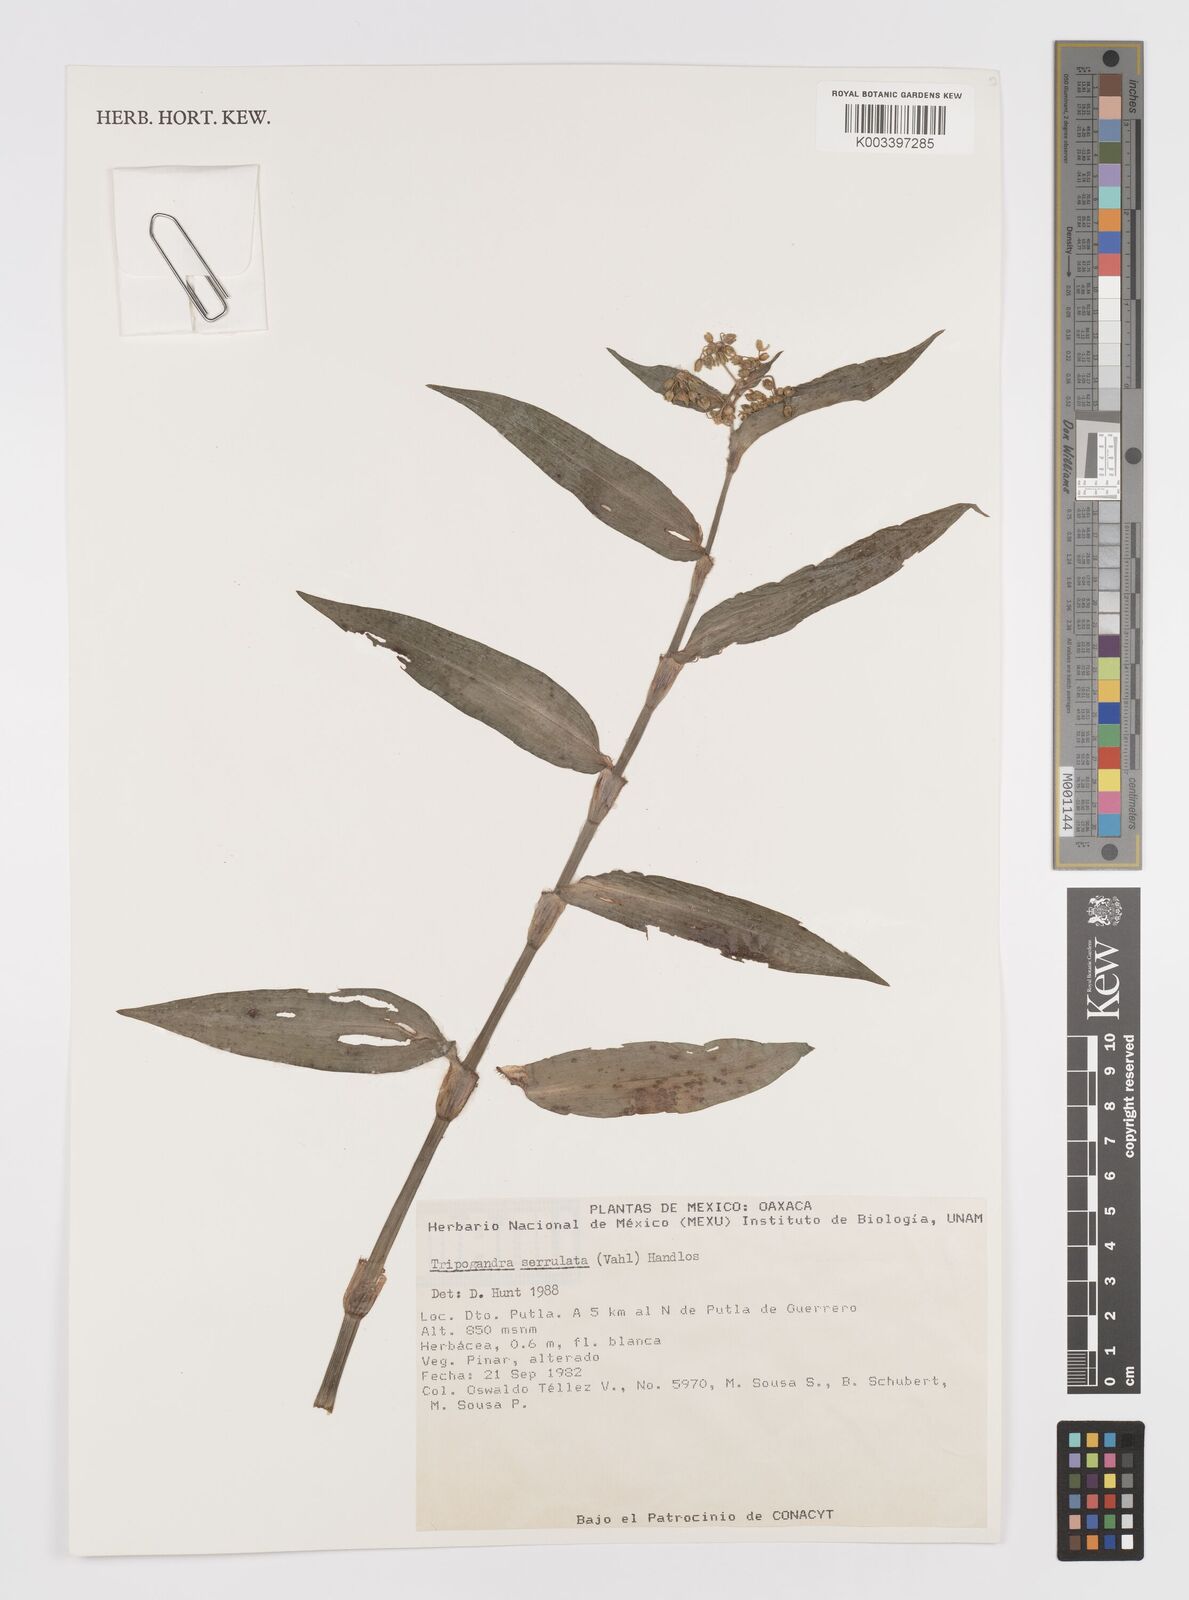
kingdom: Plantae
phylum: Tracheophyta
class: Liliopsida
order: Commelinales
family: Commelinaceae
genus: Callisia
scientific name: Callisia serrulata
